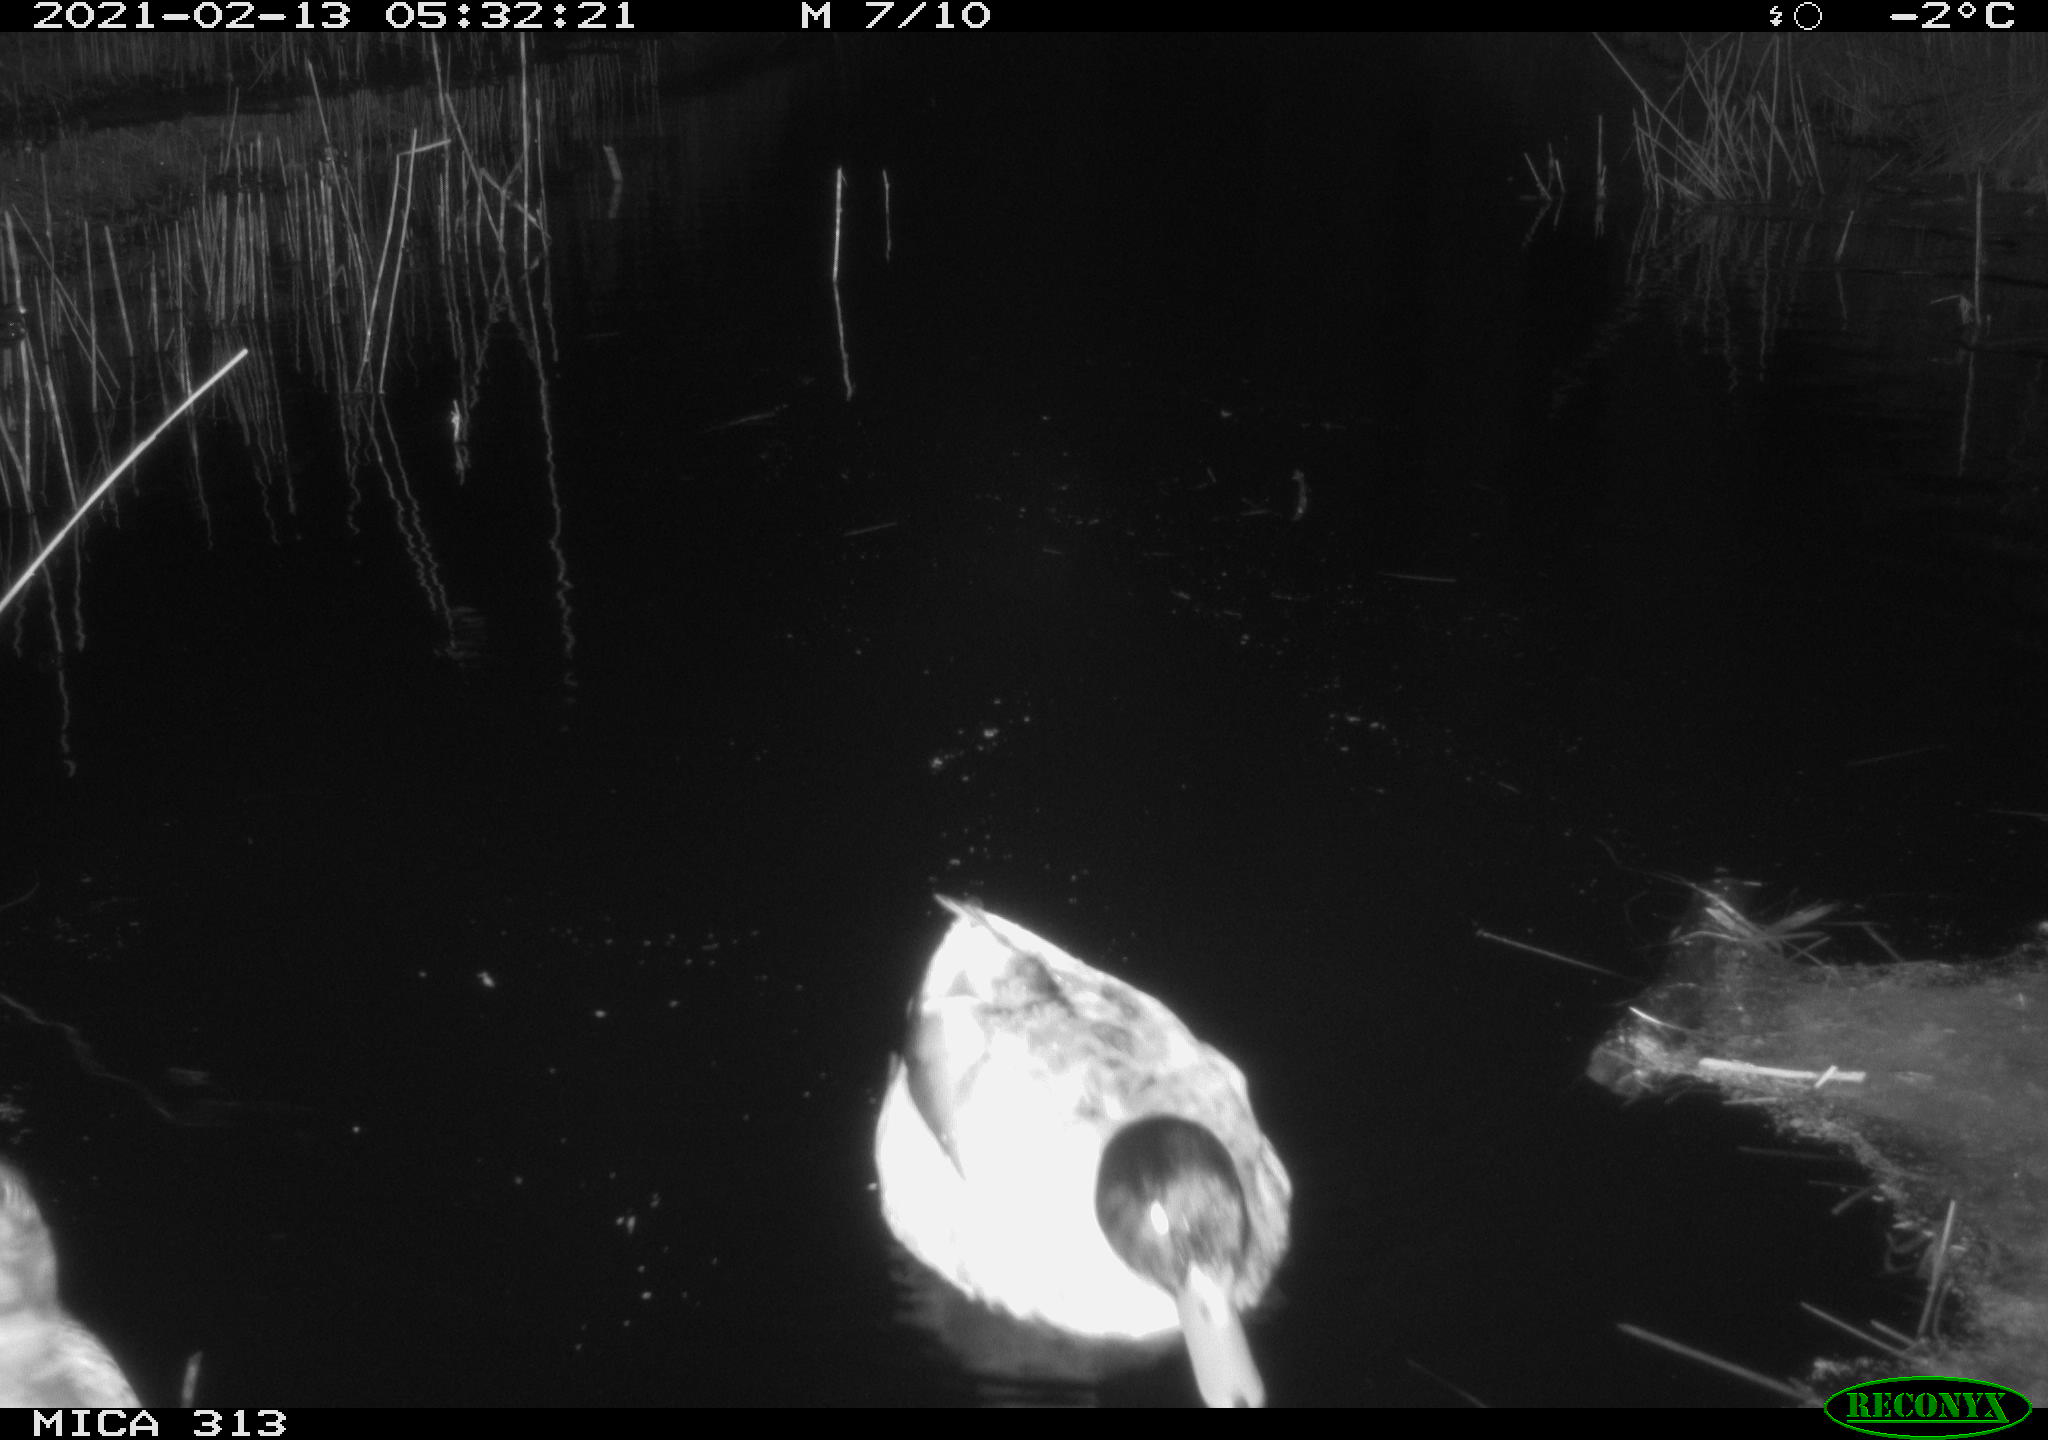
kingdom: Animalia
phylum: Chordata
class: Aves
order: Anseriformes
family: Anatidae
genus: Anas
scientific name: Anas
